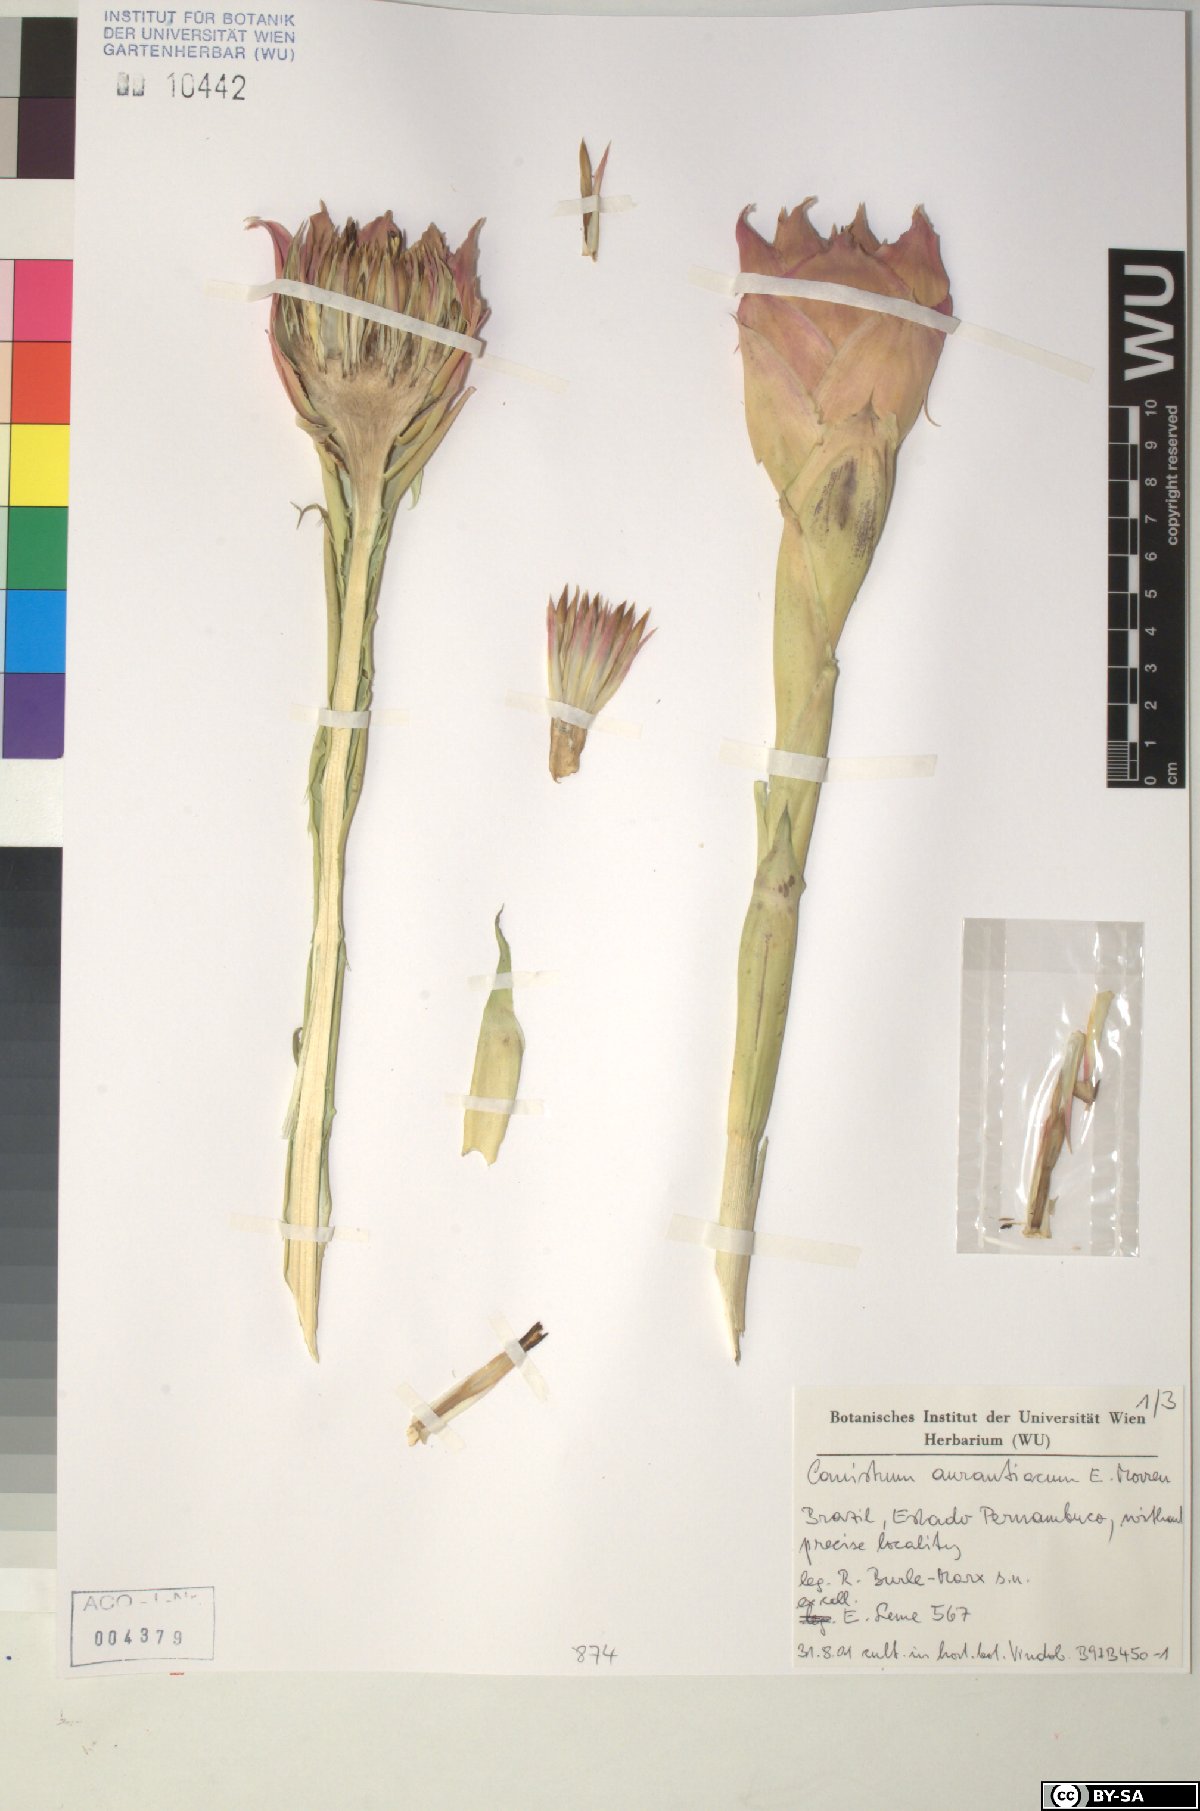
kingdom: Plantae
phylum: Tracheophyta
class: Liliopsida
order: Poales
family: Bromeliaceae
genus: Canistrum
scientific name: Canistrum aurantiacum
